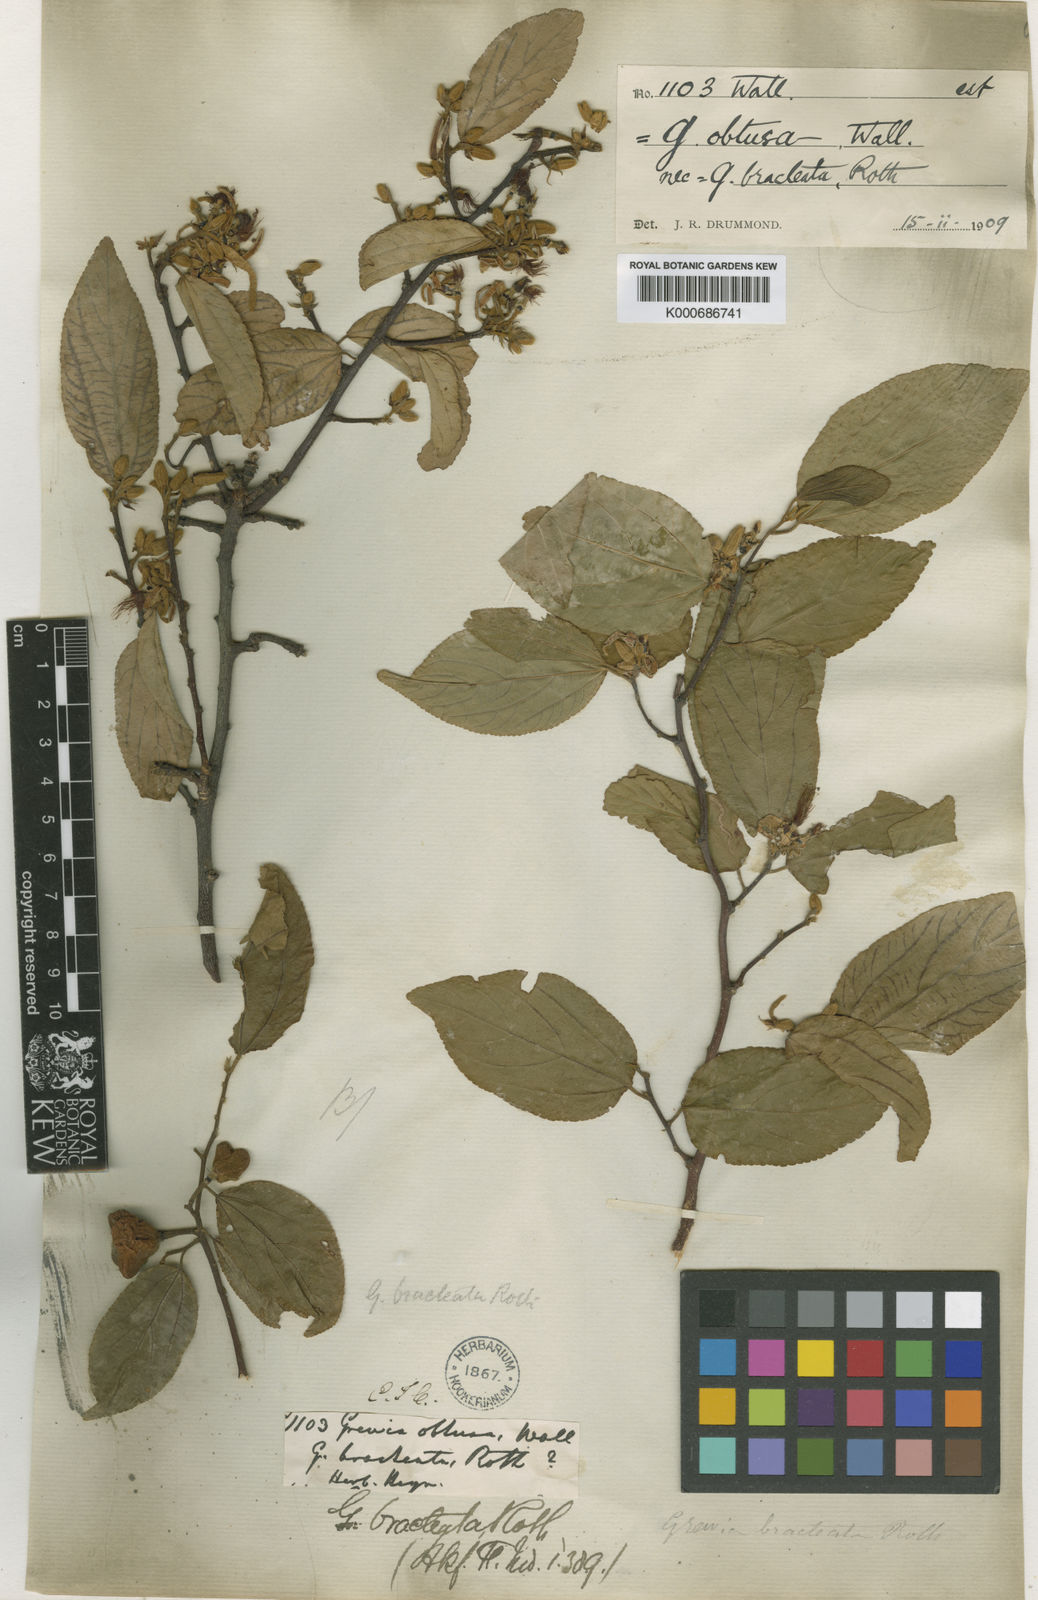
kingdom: Plantae
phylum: Tracheophyta
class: Magnoliopsida
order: Malvales
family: Malvaceae
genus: Grewia
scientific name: Grewia
